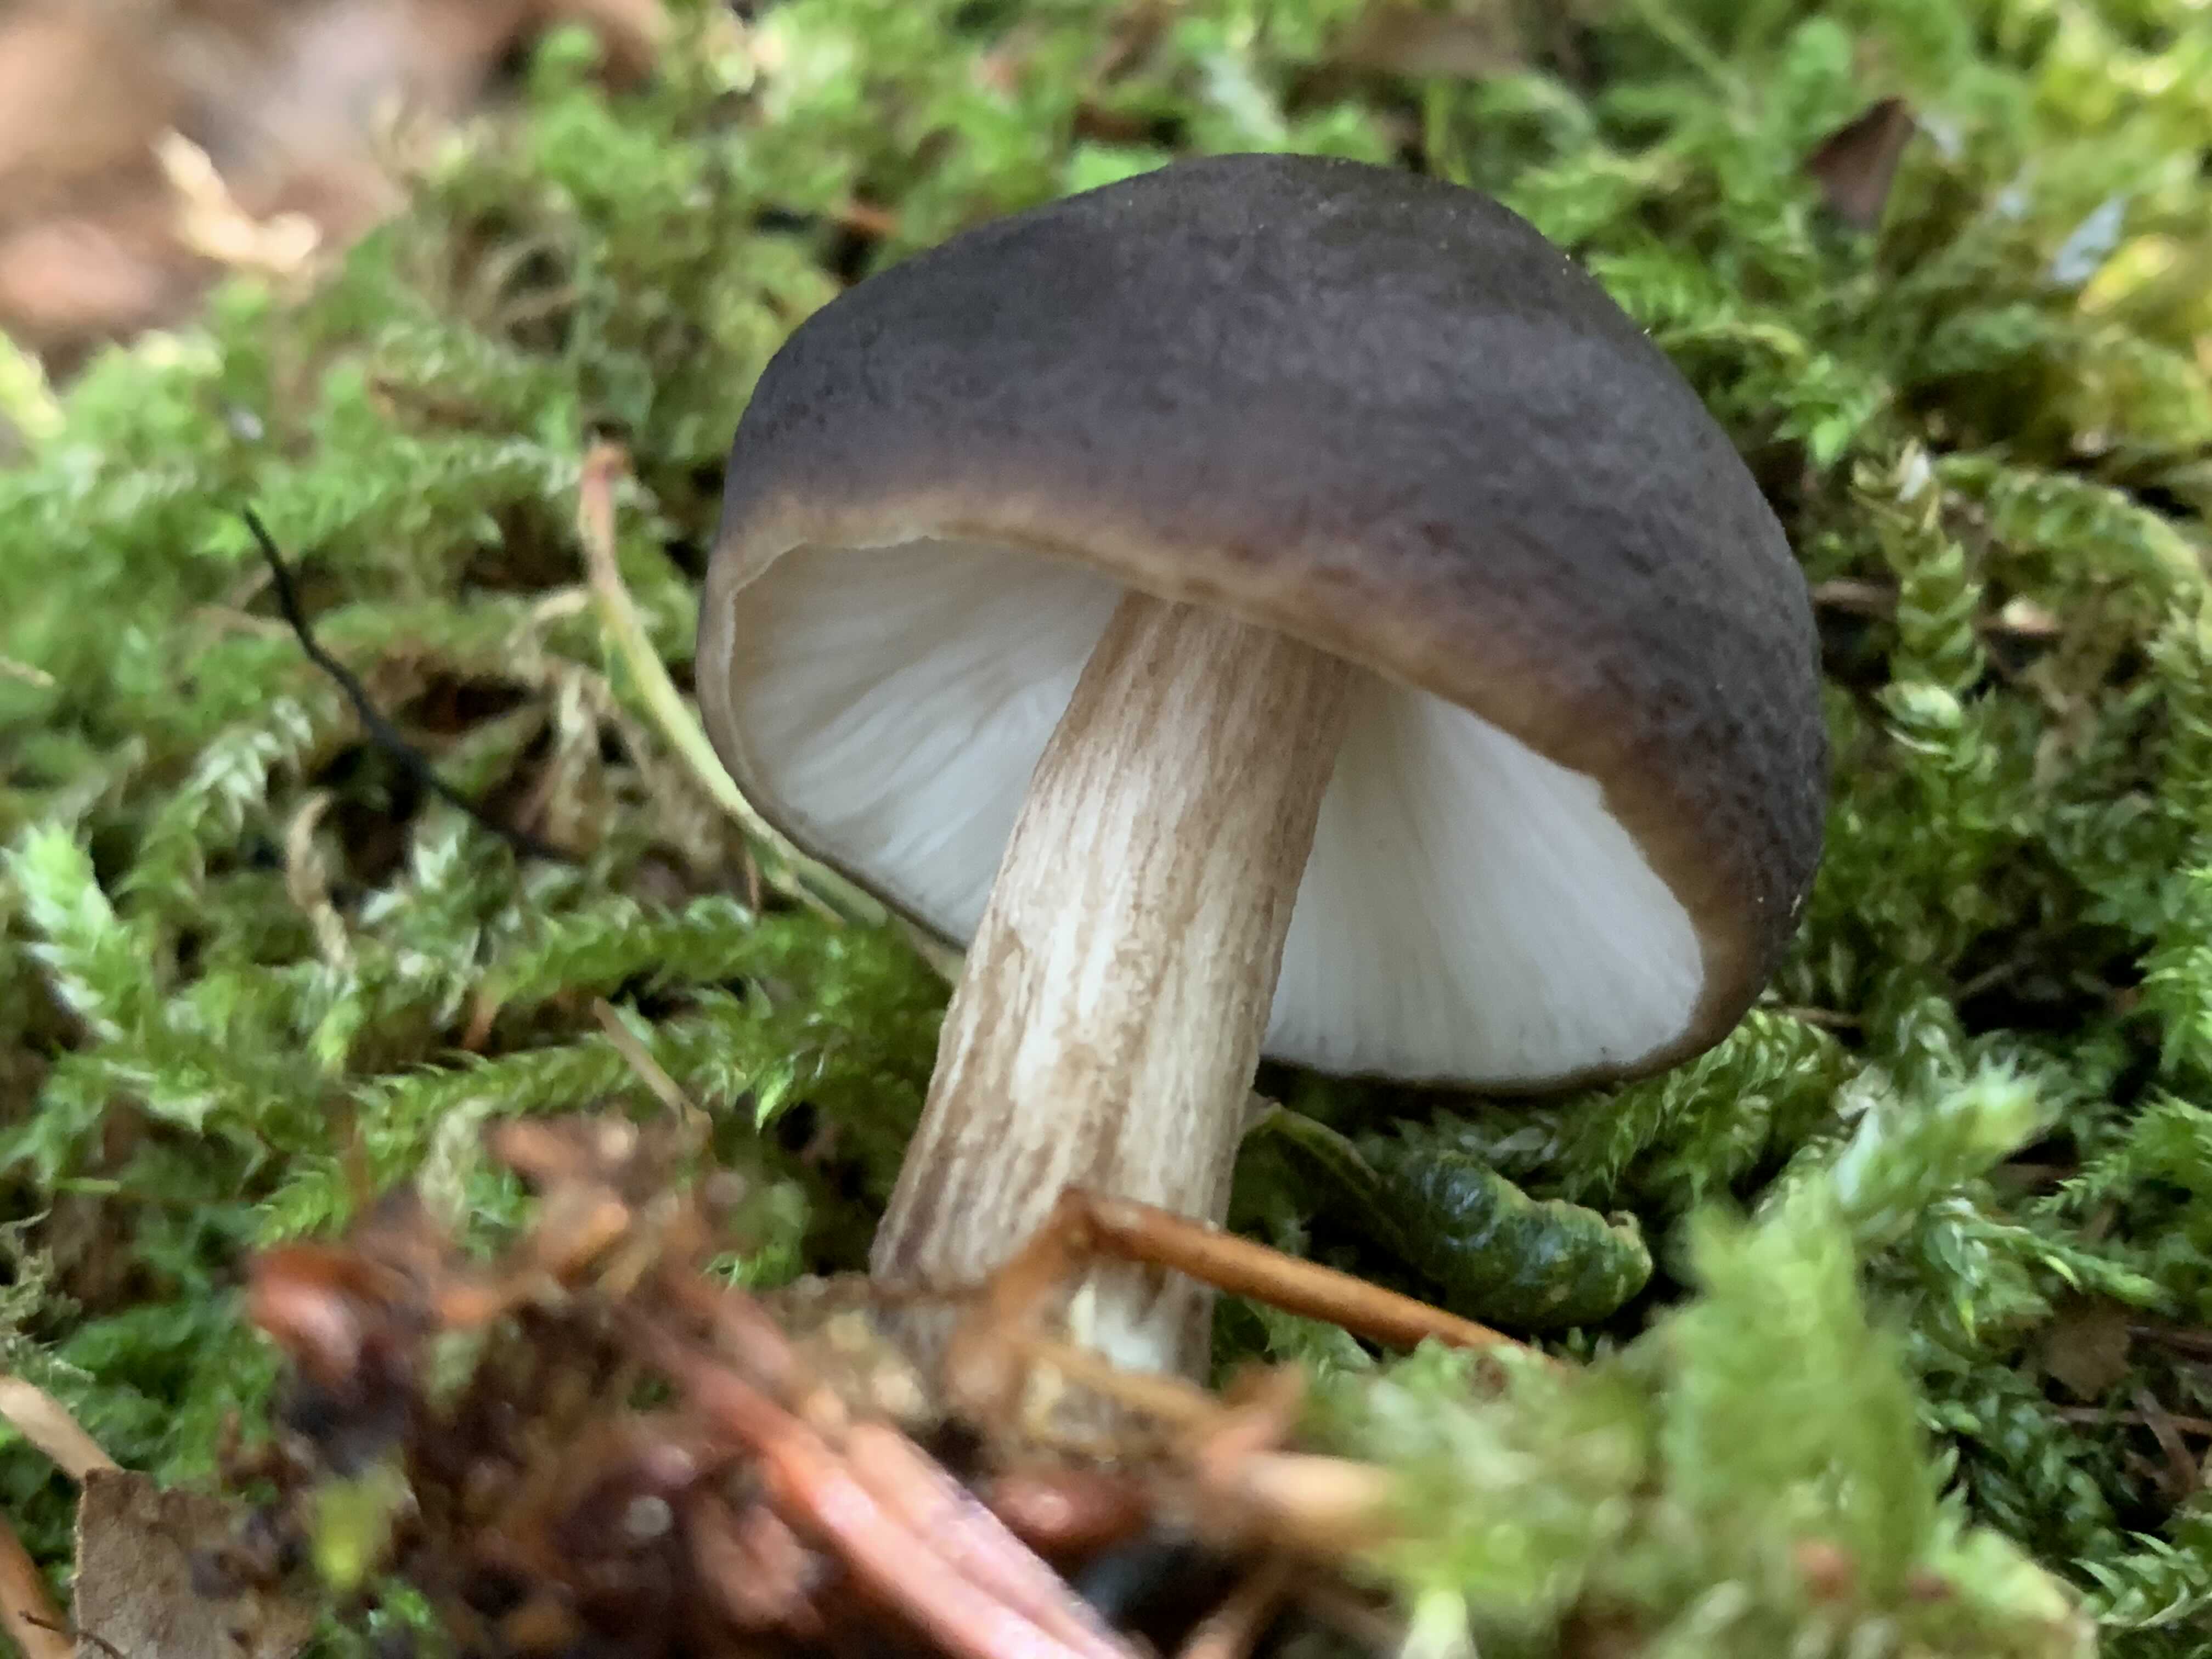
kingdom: Fungi
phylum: Basidiomycota
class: Agaricomycetes
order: Agaricales
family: Pluteaceae
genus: Pluteus
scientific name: Pluteus cervinus
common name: sodfarvet skærmhat
